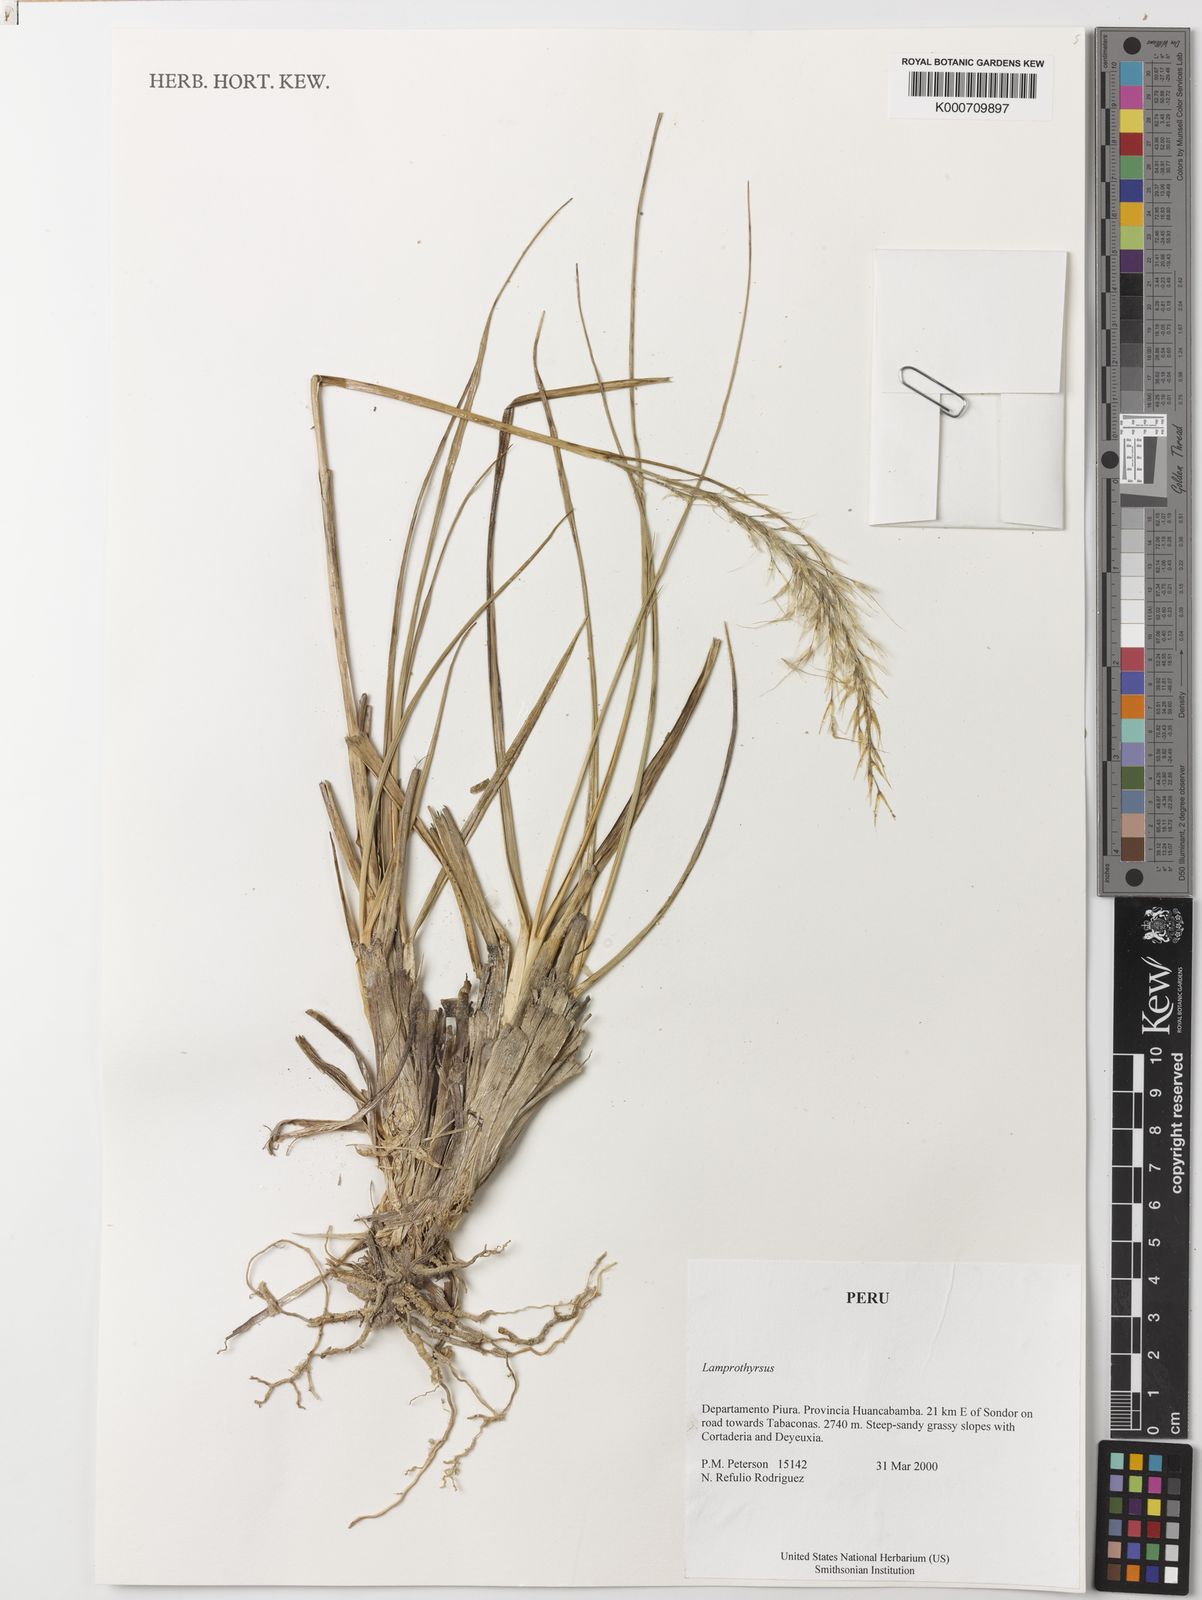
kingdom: Plantae
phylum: Tracheophyta
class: Liliopsida
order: Poales
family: Poaceae
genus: Cortaderia
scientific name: Cortaderia hieronymi
